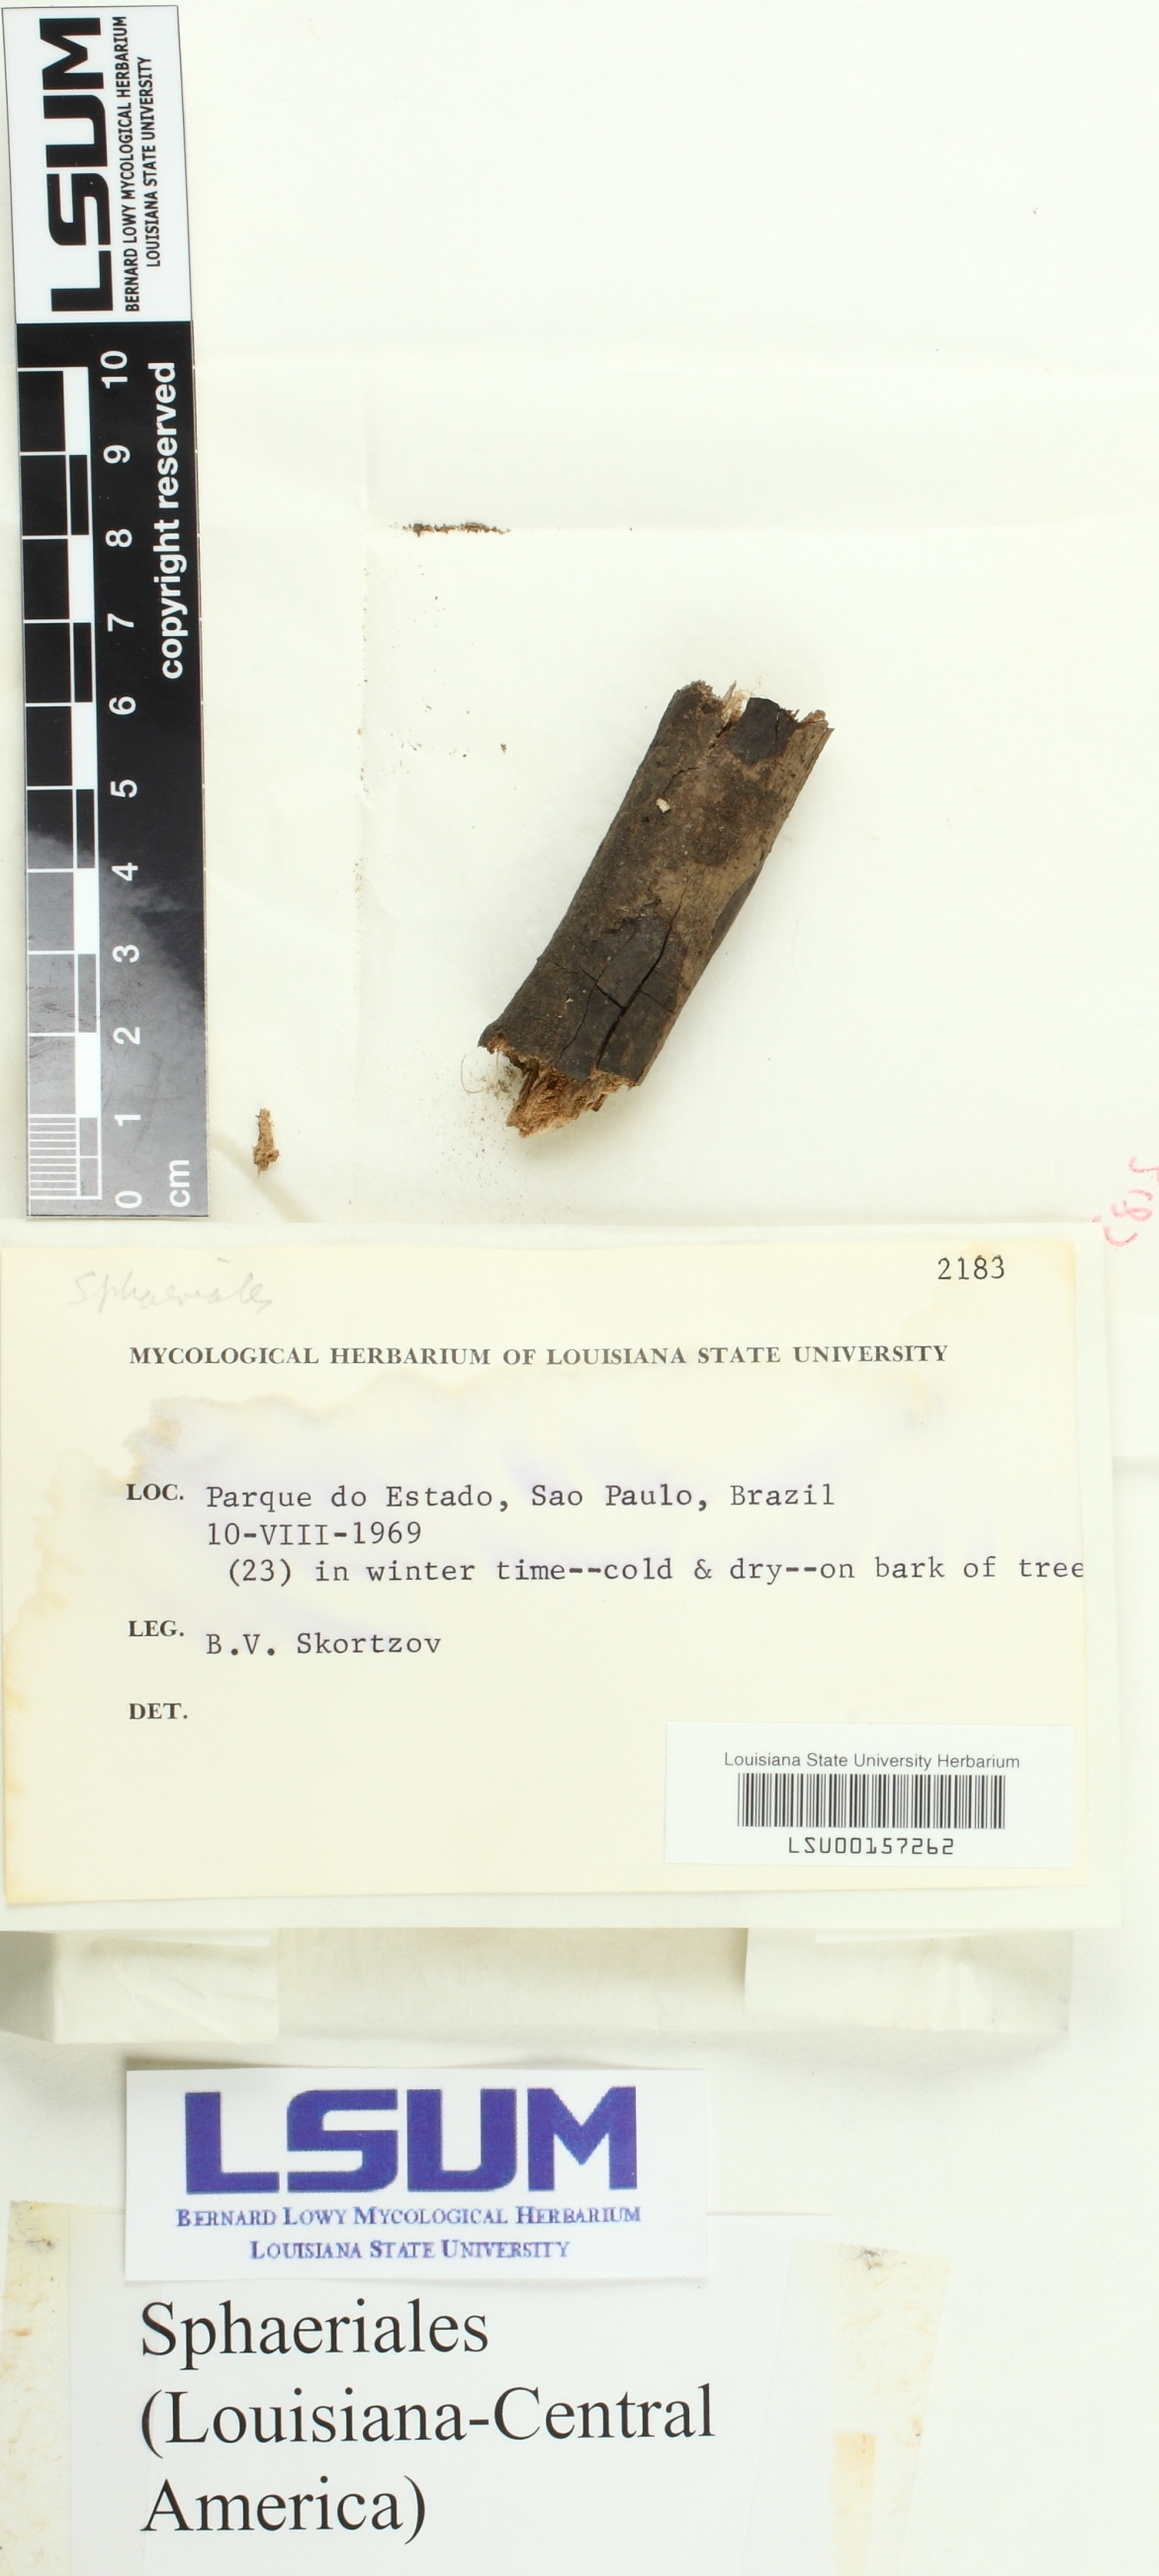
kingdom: Fungi
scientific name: Fungi
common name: Fungi
